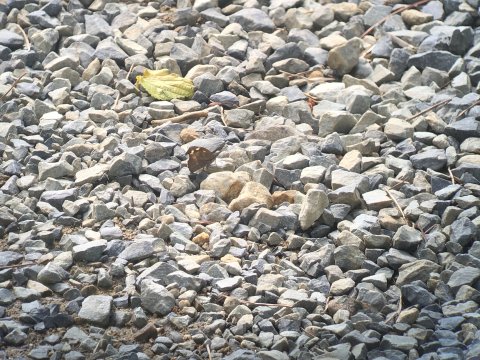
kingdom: Animalia
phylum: Arthropoda
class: Insecta
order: Lepidoptera
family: Nymphalidae
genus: Libythea
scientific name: Libythea lepita
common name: Common Beak
